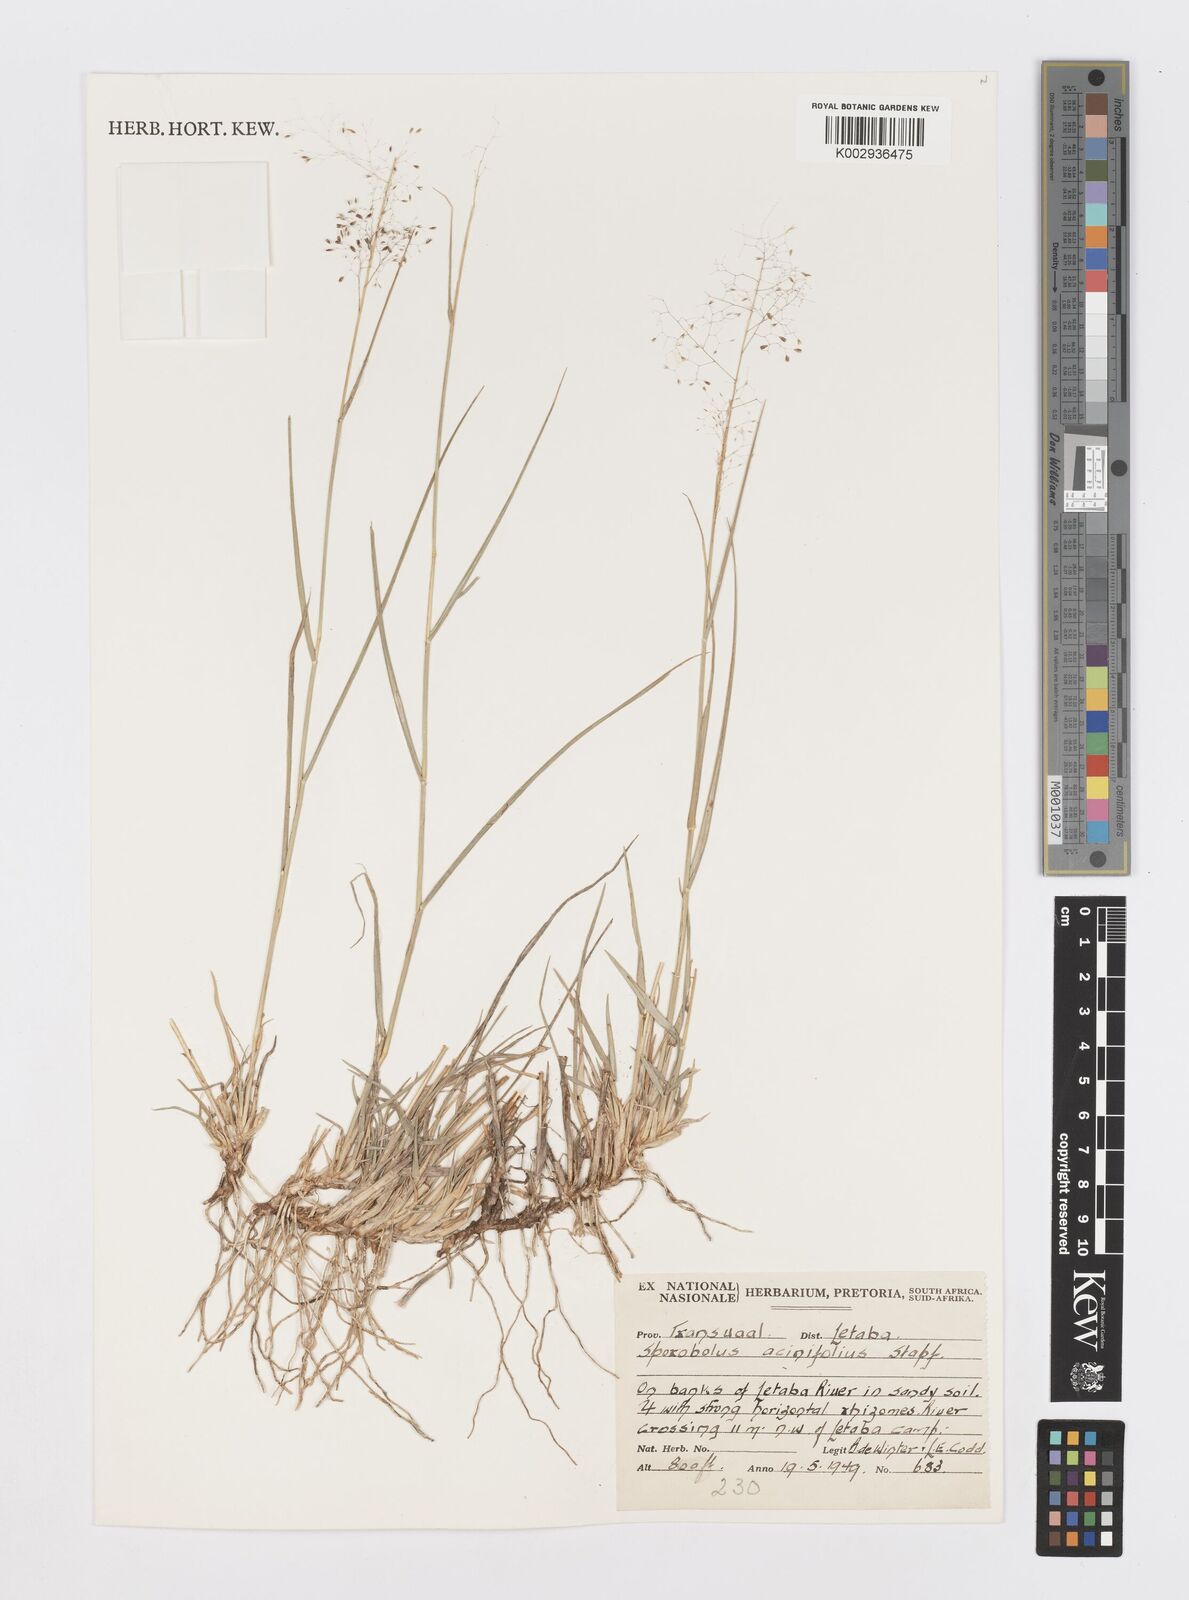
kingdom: Plantae
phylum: Tracheophyta
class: Liliopsida
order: Poales
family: Poaceae
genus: Sporobolus
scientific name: Sporobolus acinifolius
